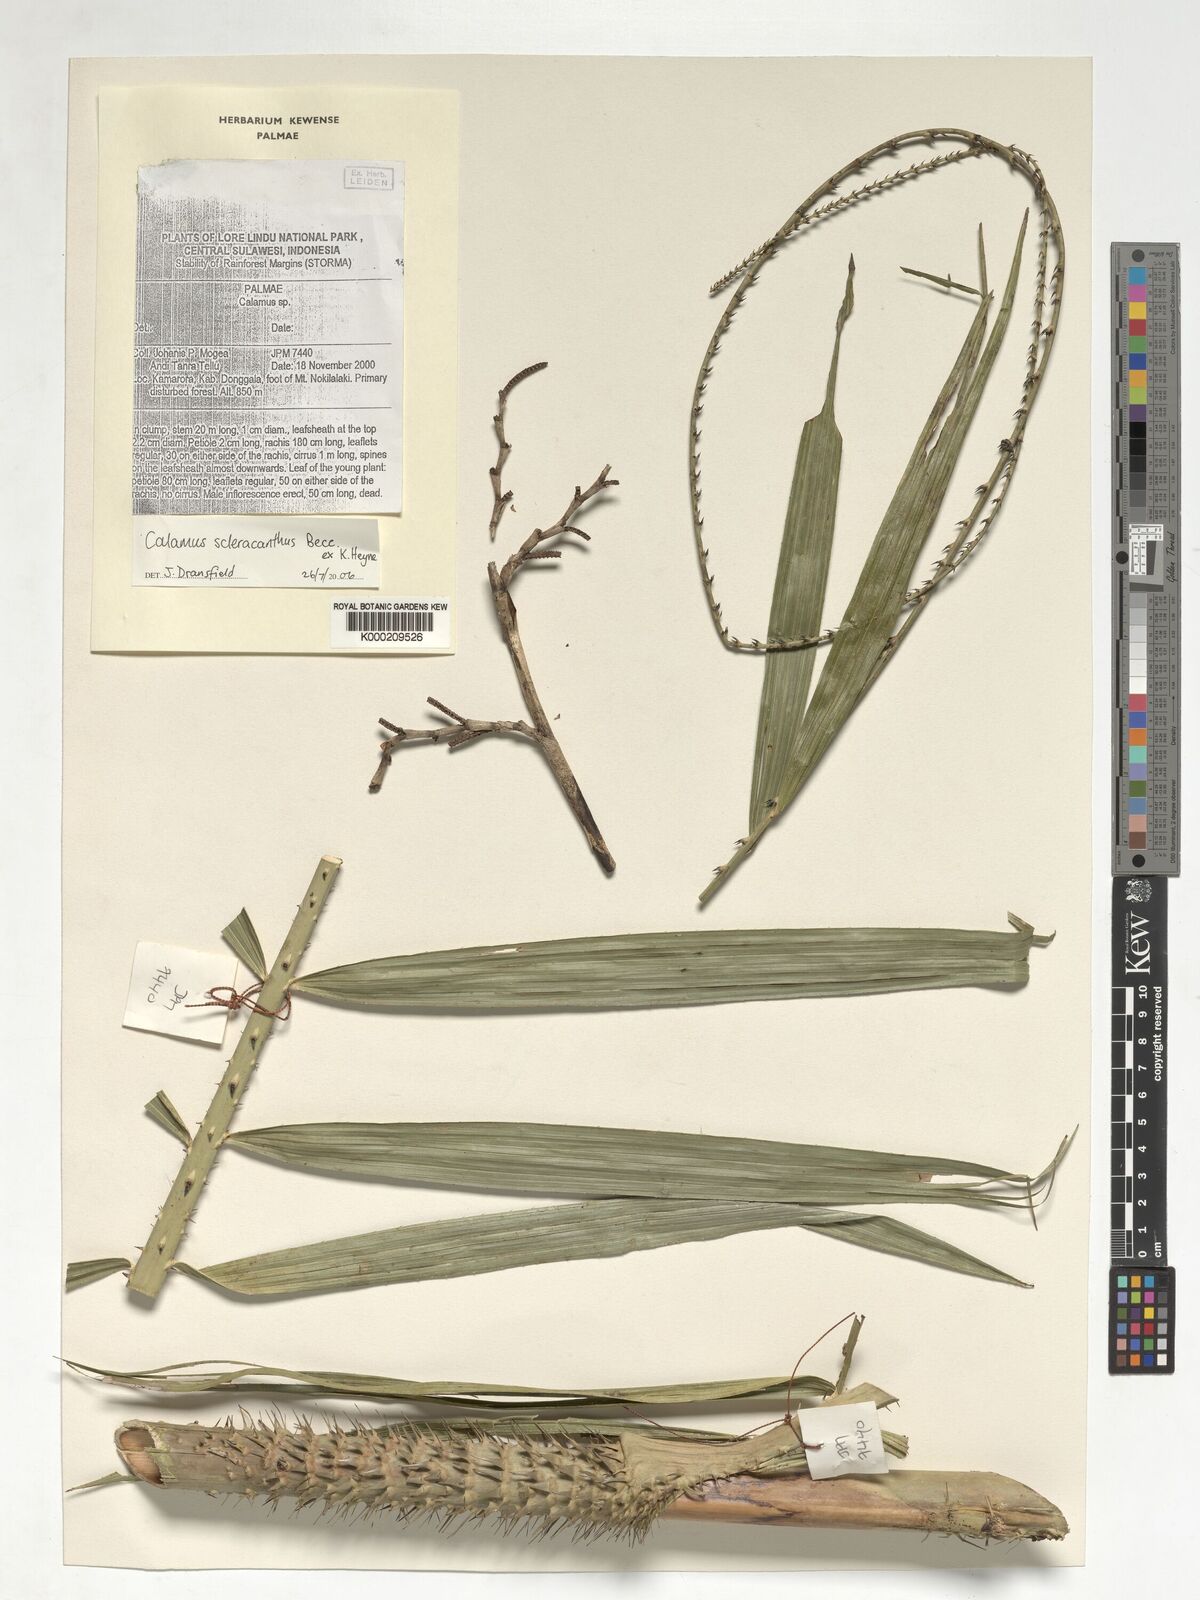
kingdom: Plantae
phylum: Tracheophyta
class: Liliopsida
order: Arecales
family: Arecaceae
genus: Calamus
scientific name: Calamus scleracanthus
